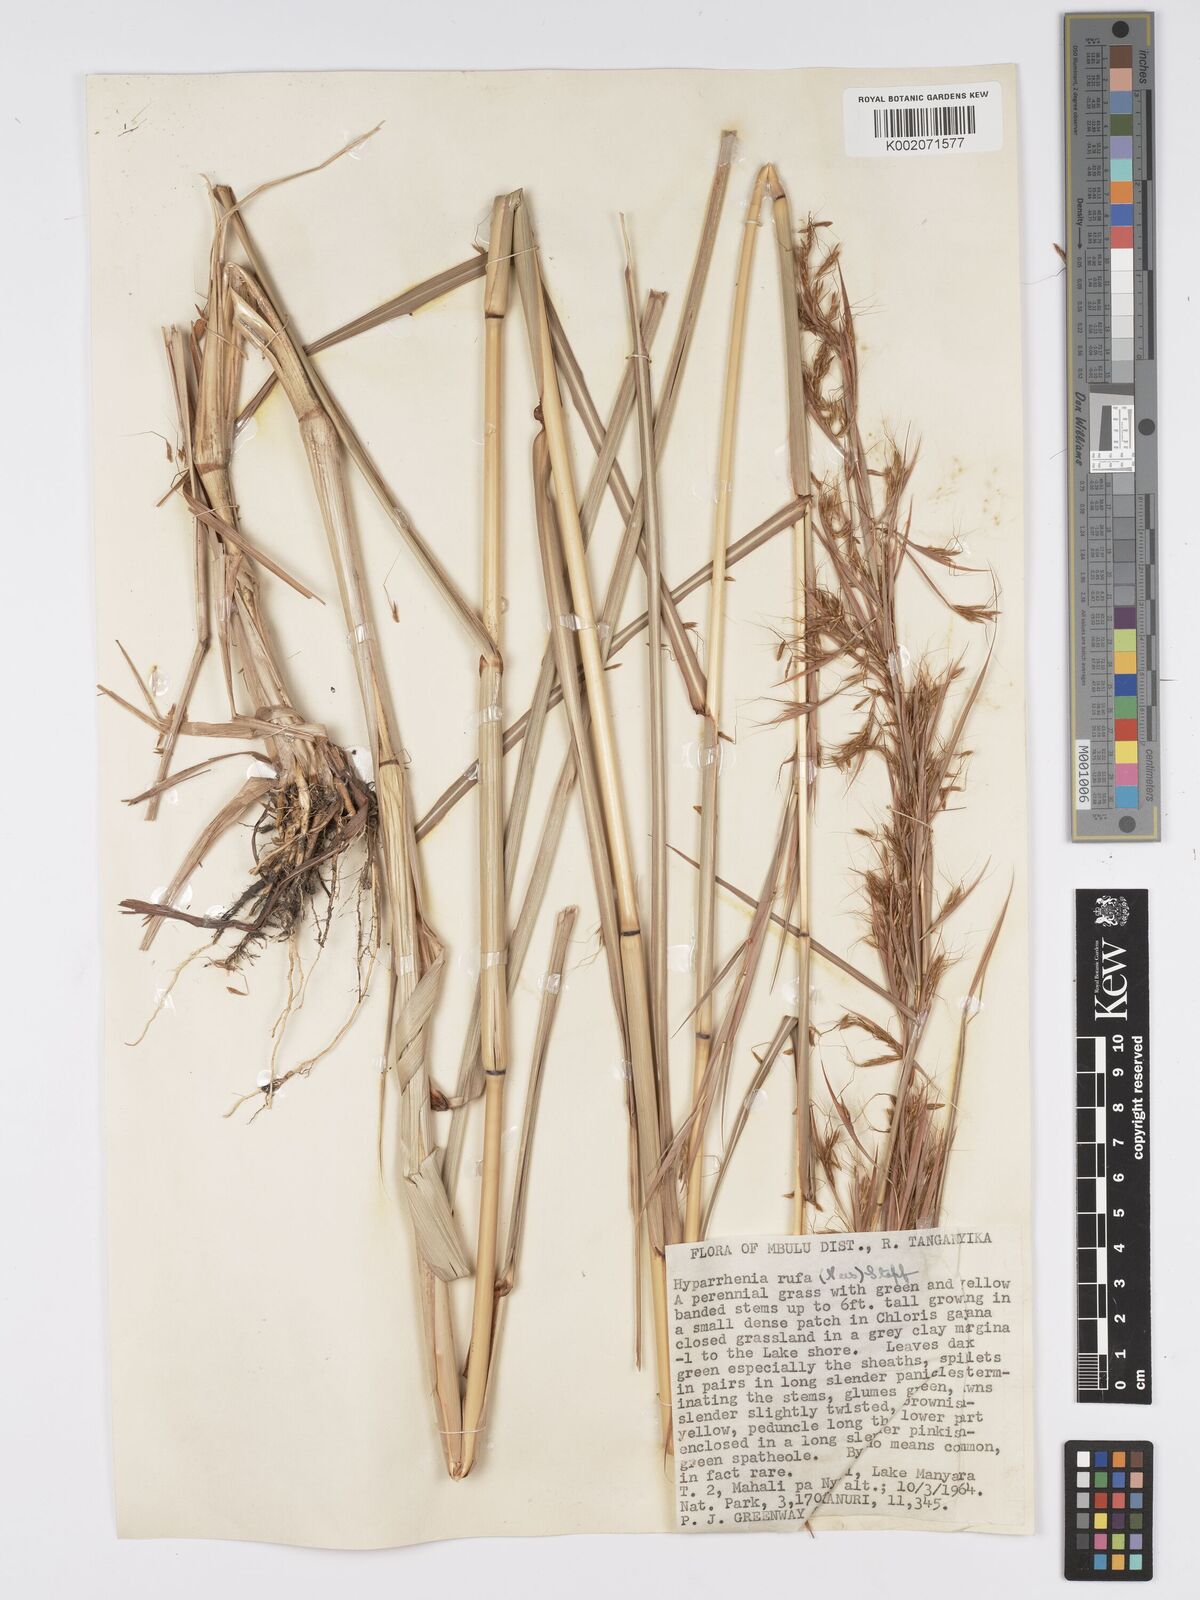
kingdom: Plantae
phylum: Tracheophyta
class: Liliopsida
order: Poales
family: Poaceae
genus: Hyparrhenia
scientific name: Hyparrhenia rufa
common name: Jaraguagrass
